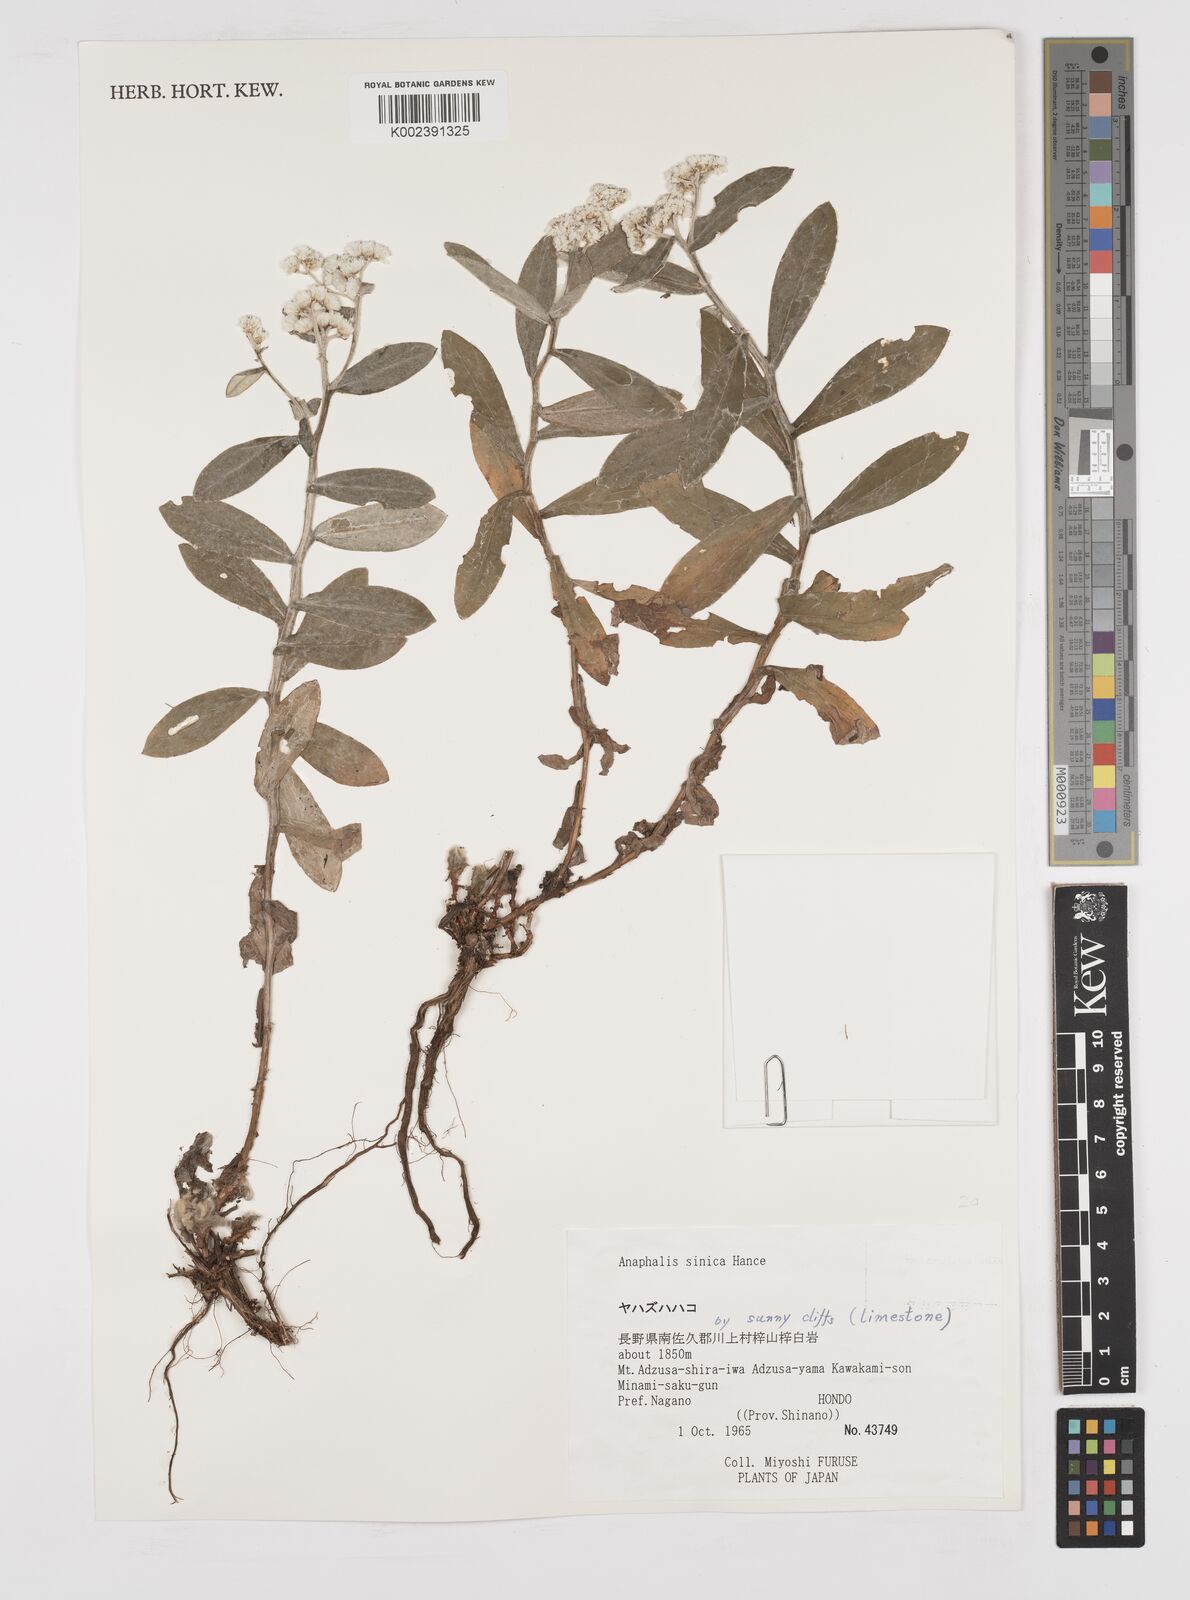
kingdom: Plantae
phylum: Tracheophyta
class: Magnoliopsida
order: Asterales
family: Asteraceae
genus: Anaphalis
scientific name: Anaphalis sinica
